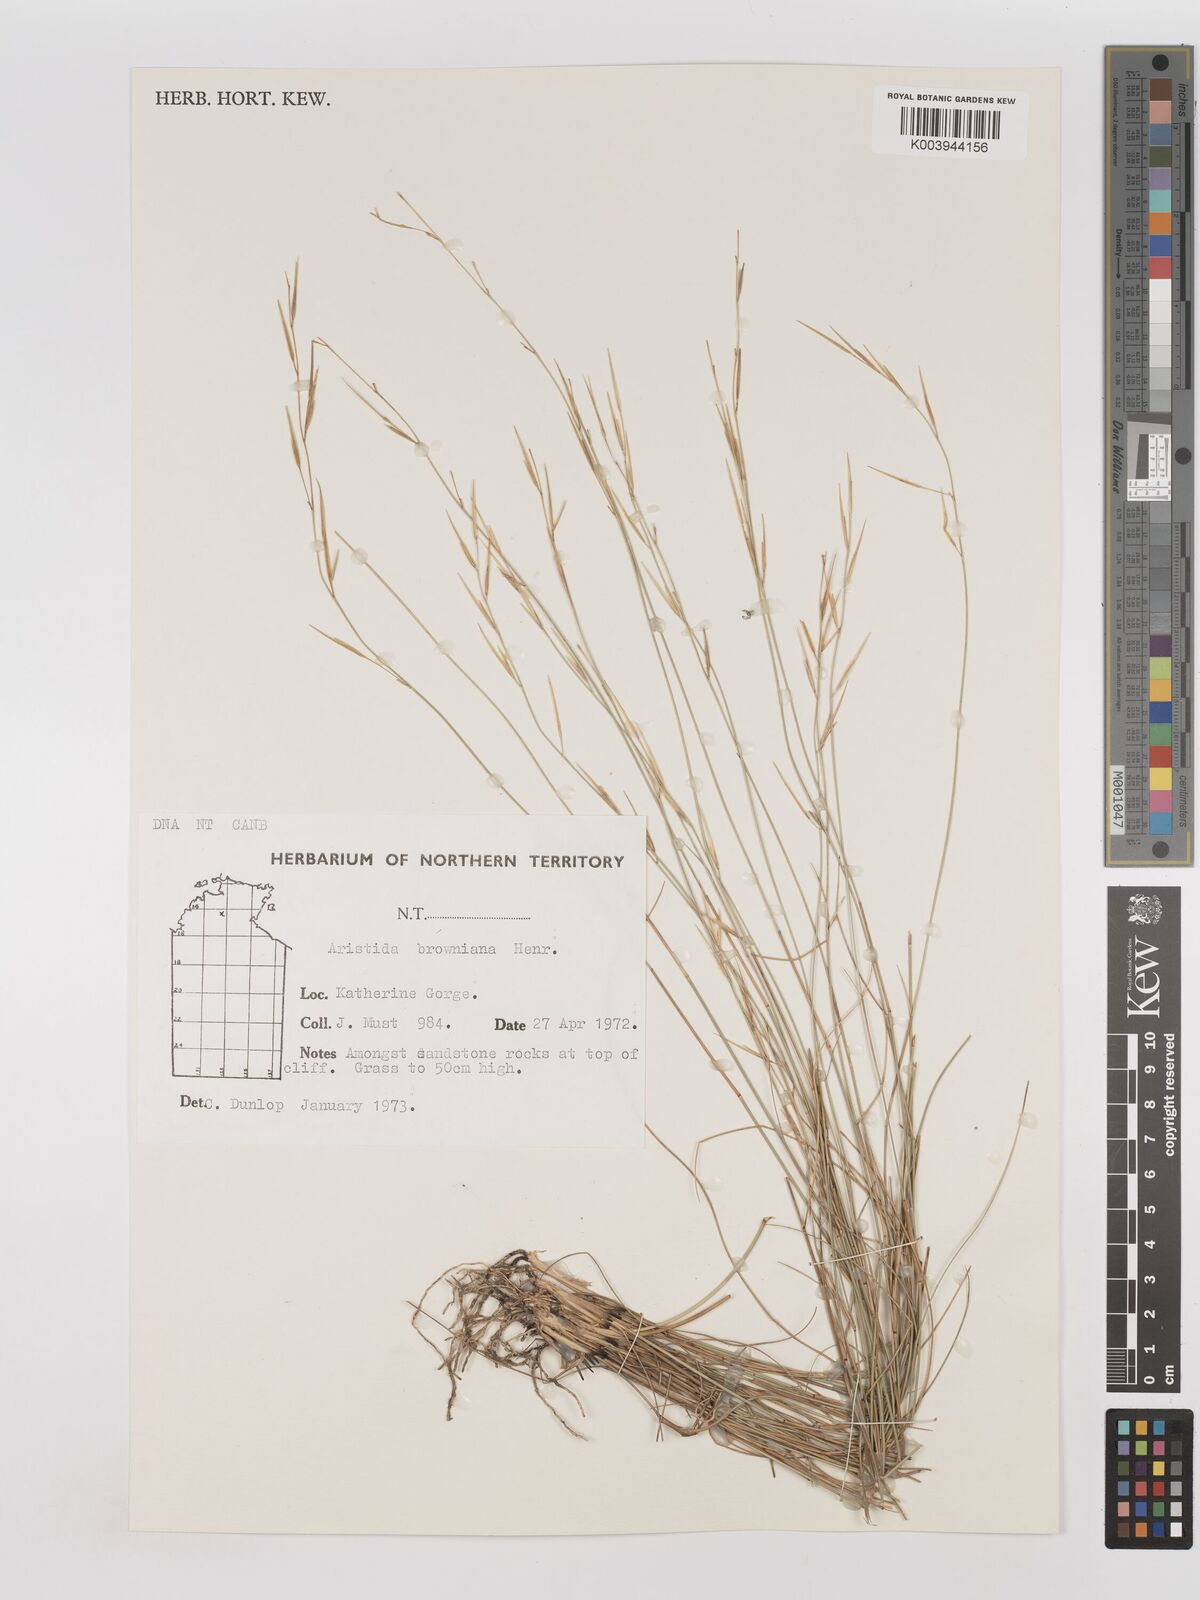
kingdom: Plantae
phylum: Tracheophyta
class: Liliopsida
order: Poales
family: Poaceae
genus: Aristida
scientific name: Aristida holathera
